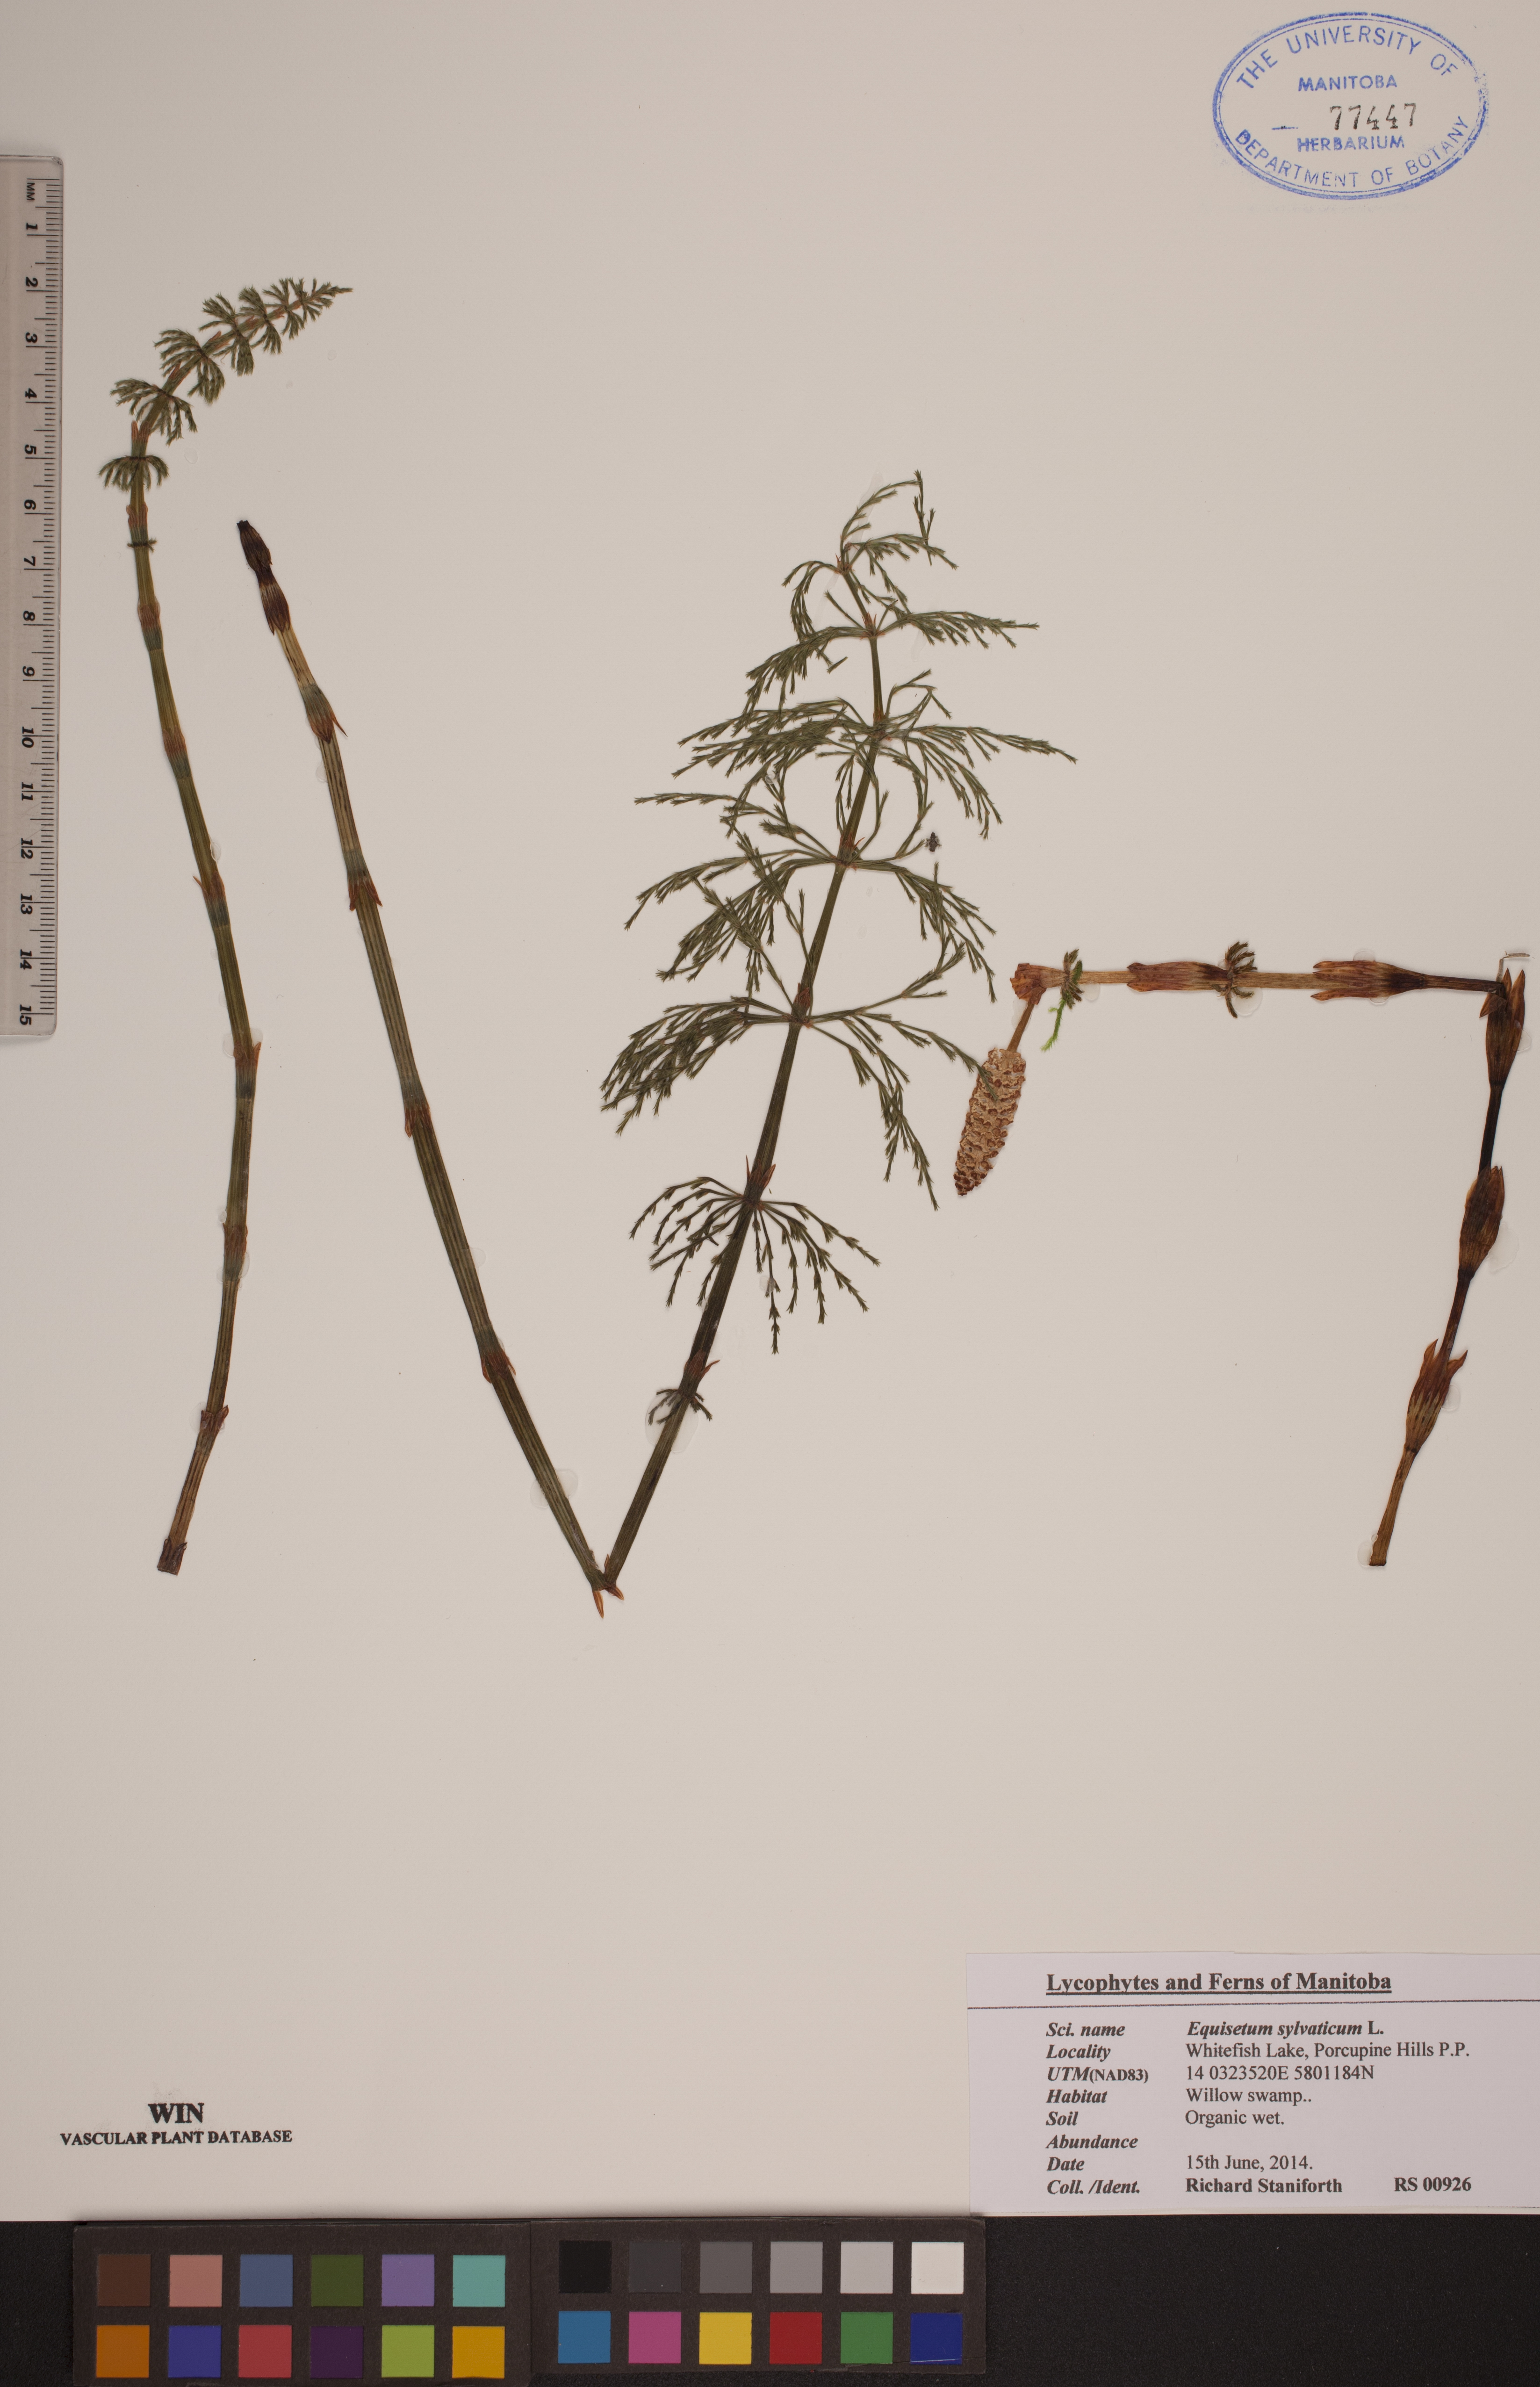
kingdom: Plantae
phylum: Tracheophyta
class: Polypodiopsida
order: Equisetales
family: Equisetaceae
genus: Equisetum
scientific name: Equisetum sylvaticum
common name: Wood horsetail
